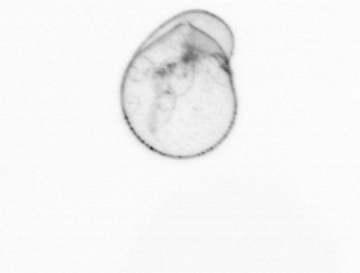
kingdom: Chromista
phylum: Myzozoa
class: Dinophyceae
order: Noctilucales
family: Noctilucaceae
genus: Noctiluca
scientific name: Noctiluca scintillans
